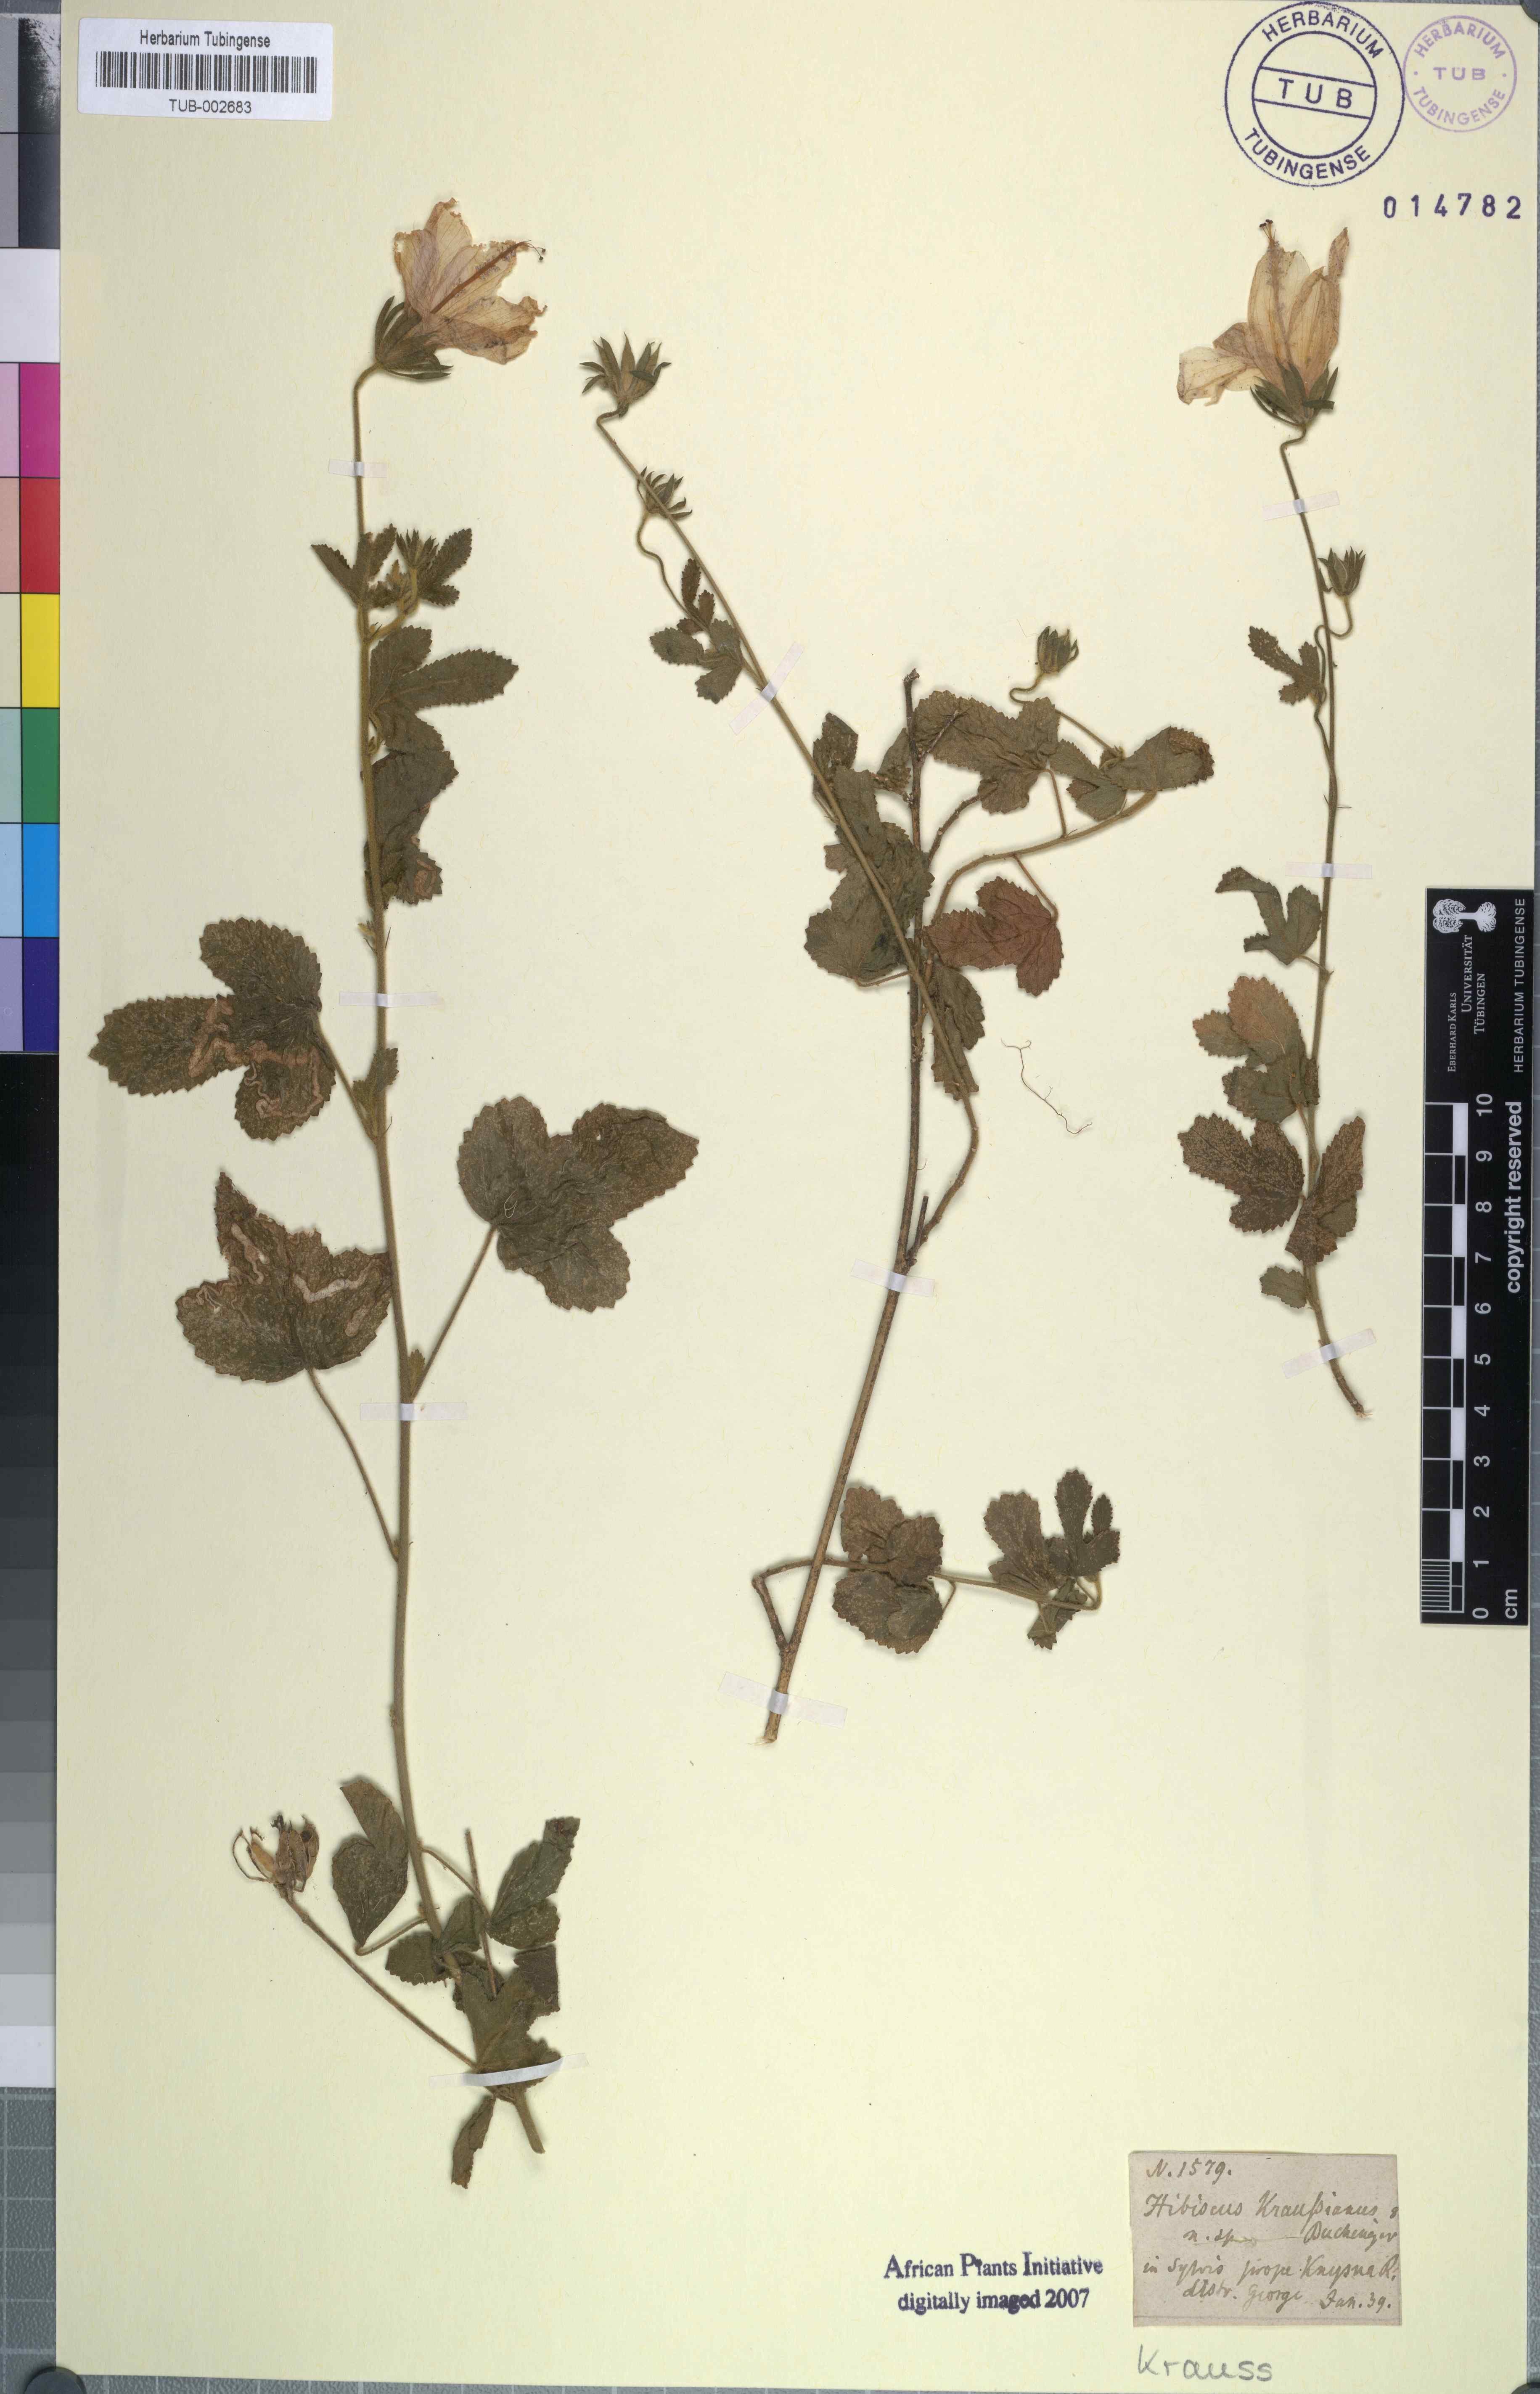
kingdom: Plantae
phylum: Tracheophyta
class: Magnoliopsida
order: Malvales
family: Malvaceae
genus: Hibiscus
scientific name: Hibiscus pedunculatus
